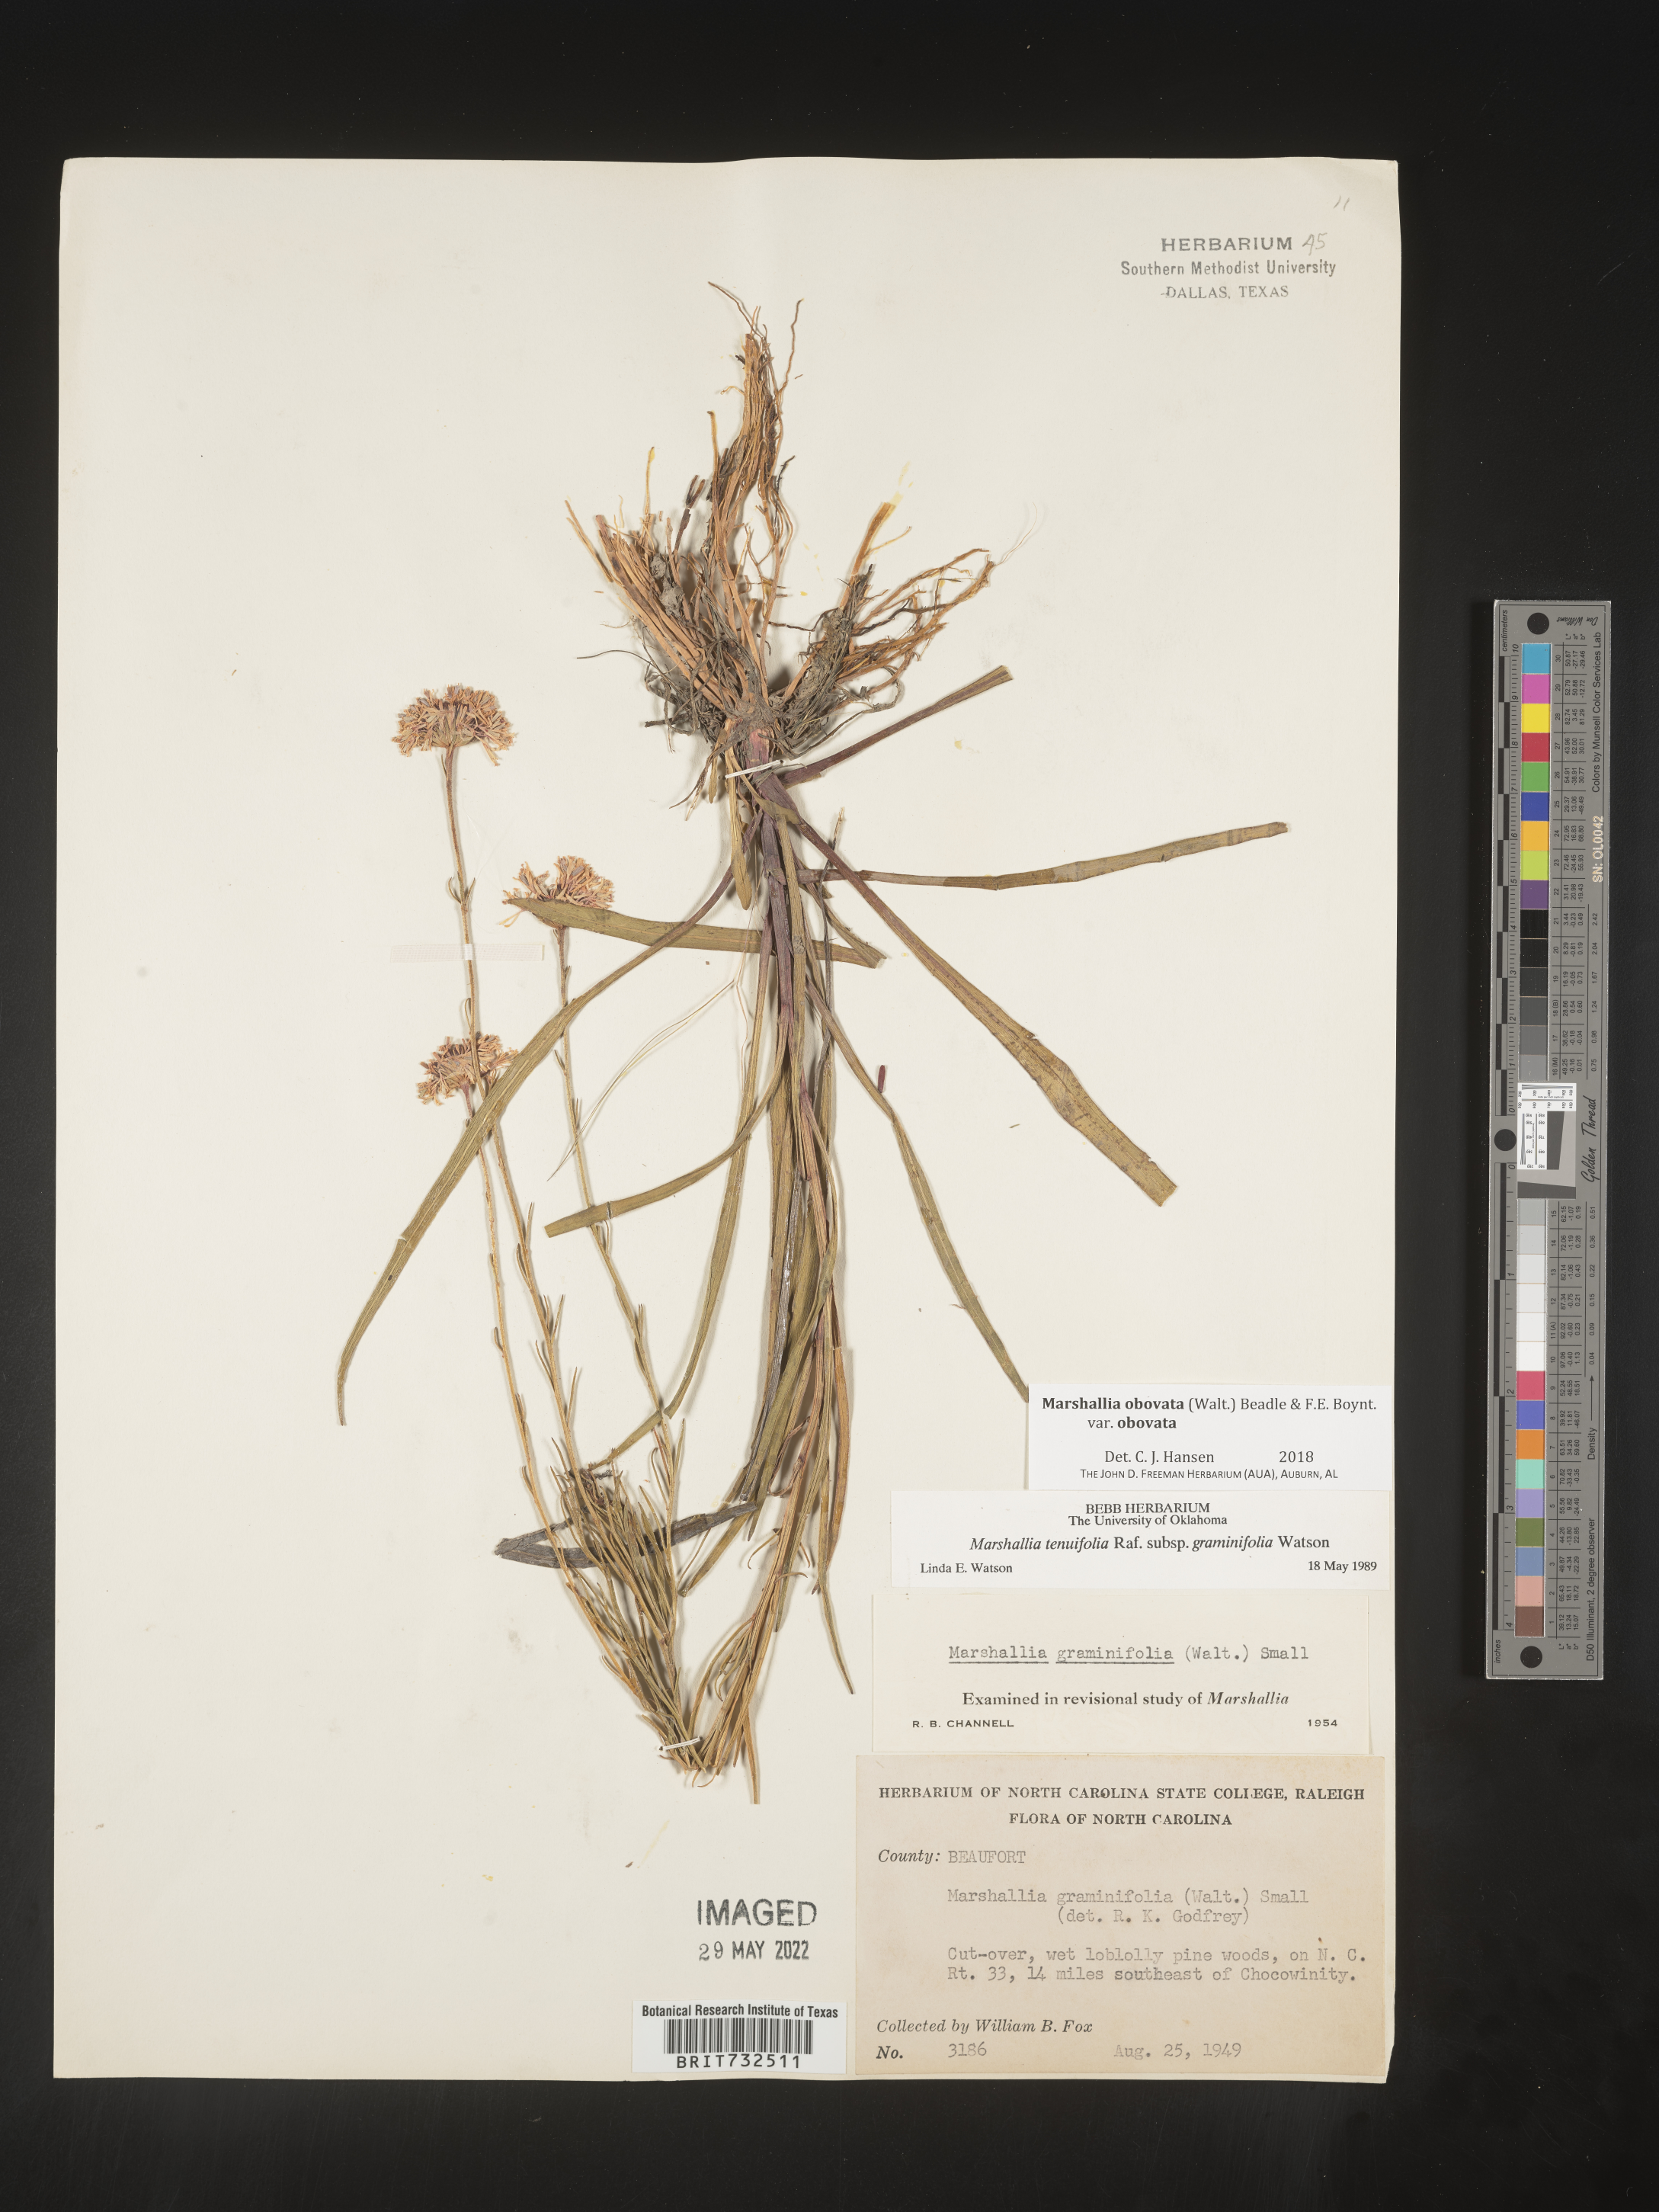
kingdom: Plantae
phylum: Tracheophyta
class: Magnoliopsida
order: Asterales
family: Asteraceae
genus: Marshallia
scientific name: Marshallia obovata
